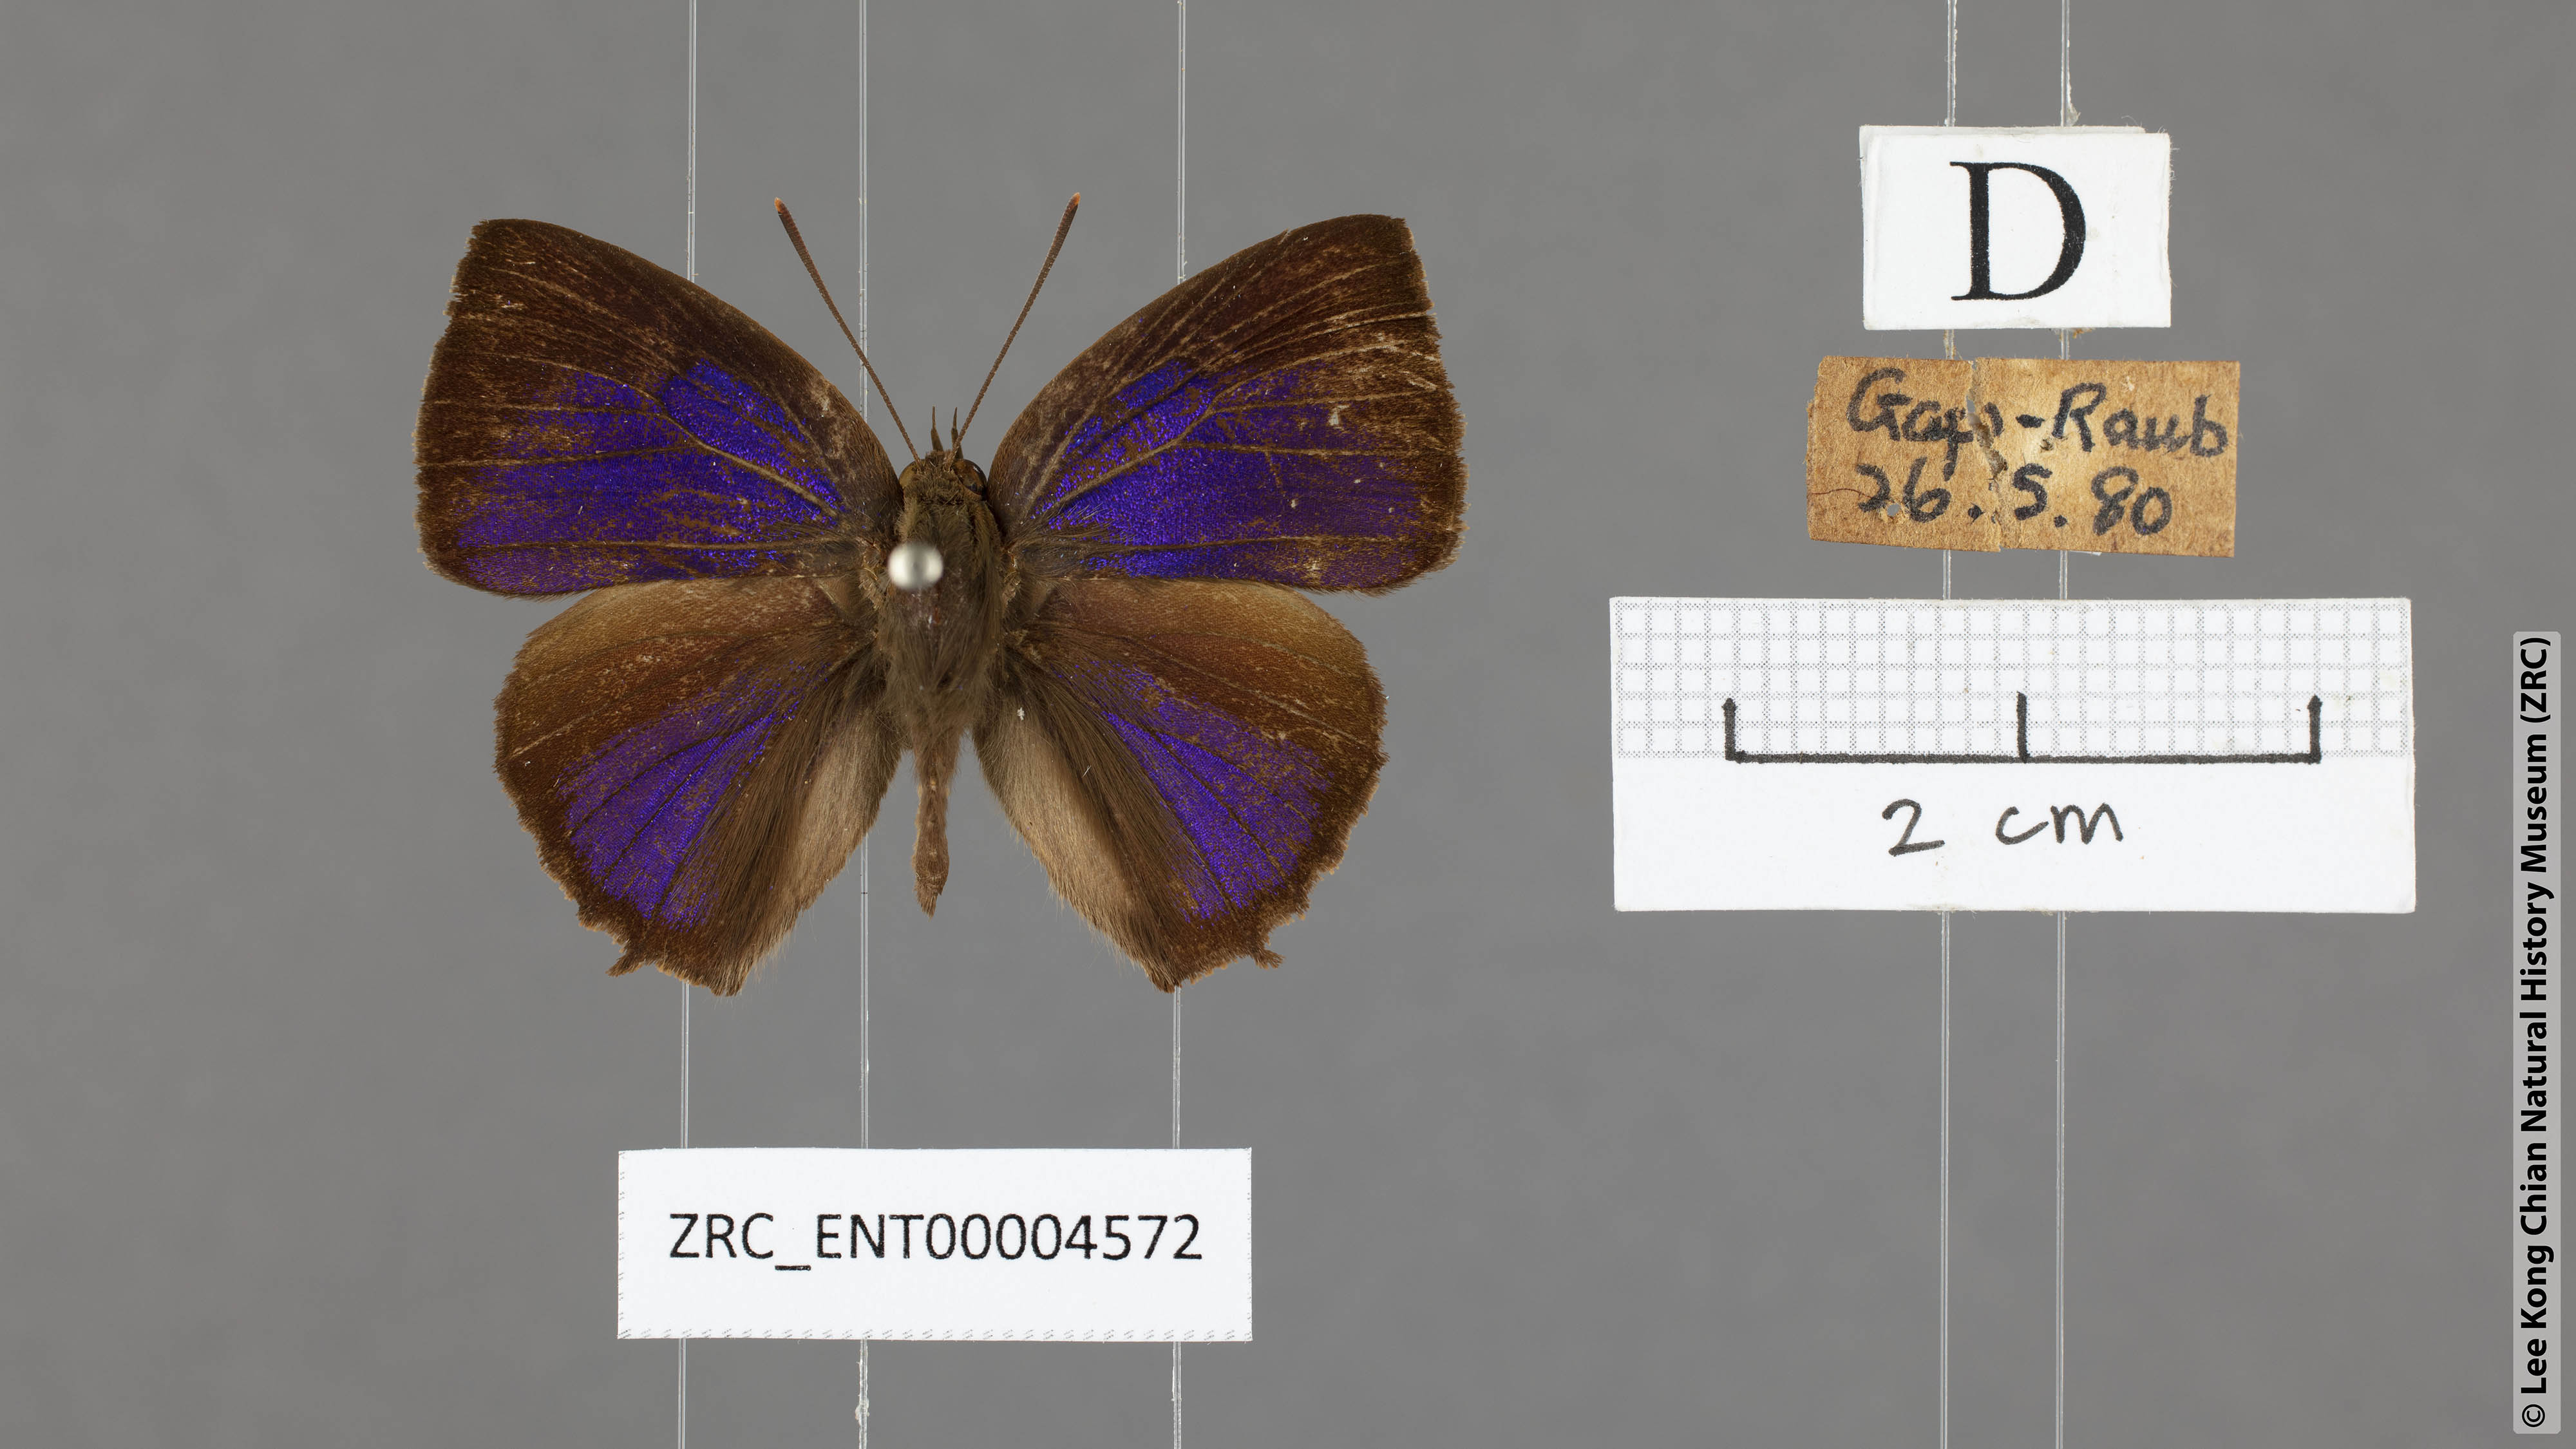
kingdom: Animalia
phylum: Arthropoda
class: Insecta
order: Lepidoptera
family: Lycaenidae
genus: Surendra
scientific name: Surendra vivarna
